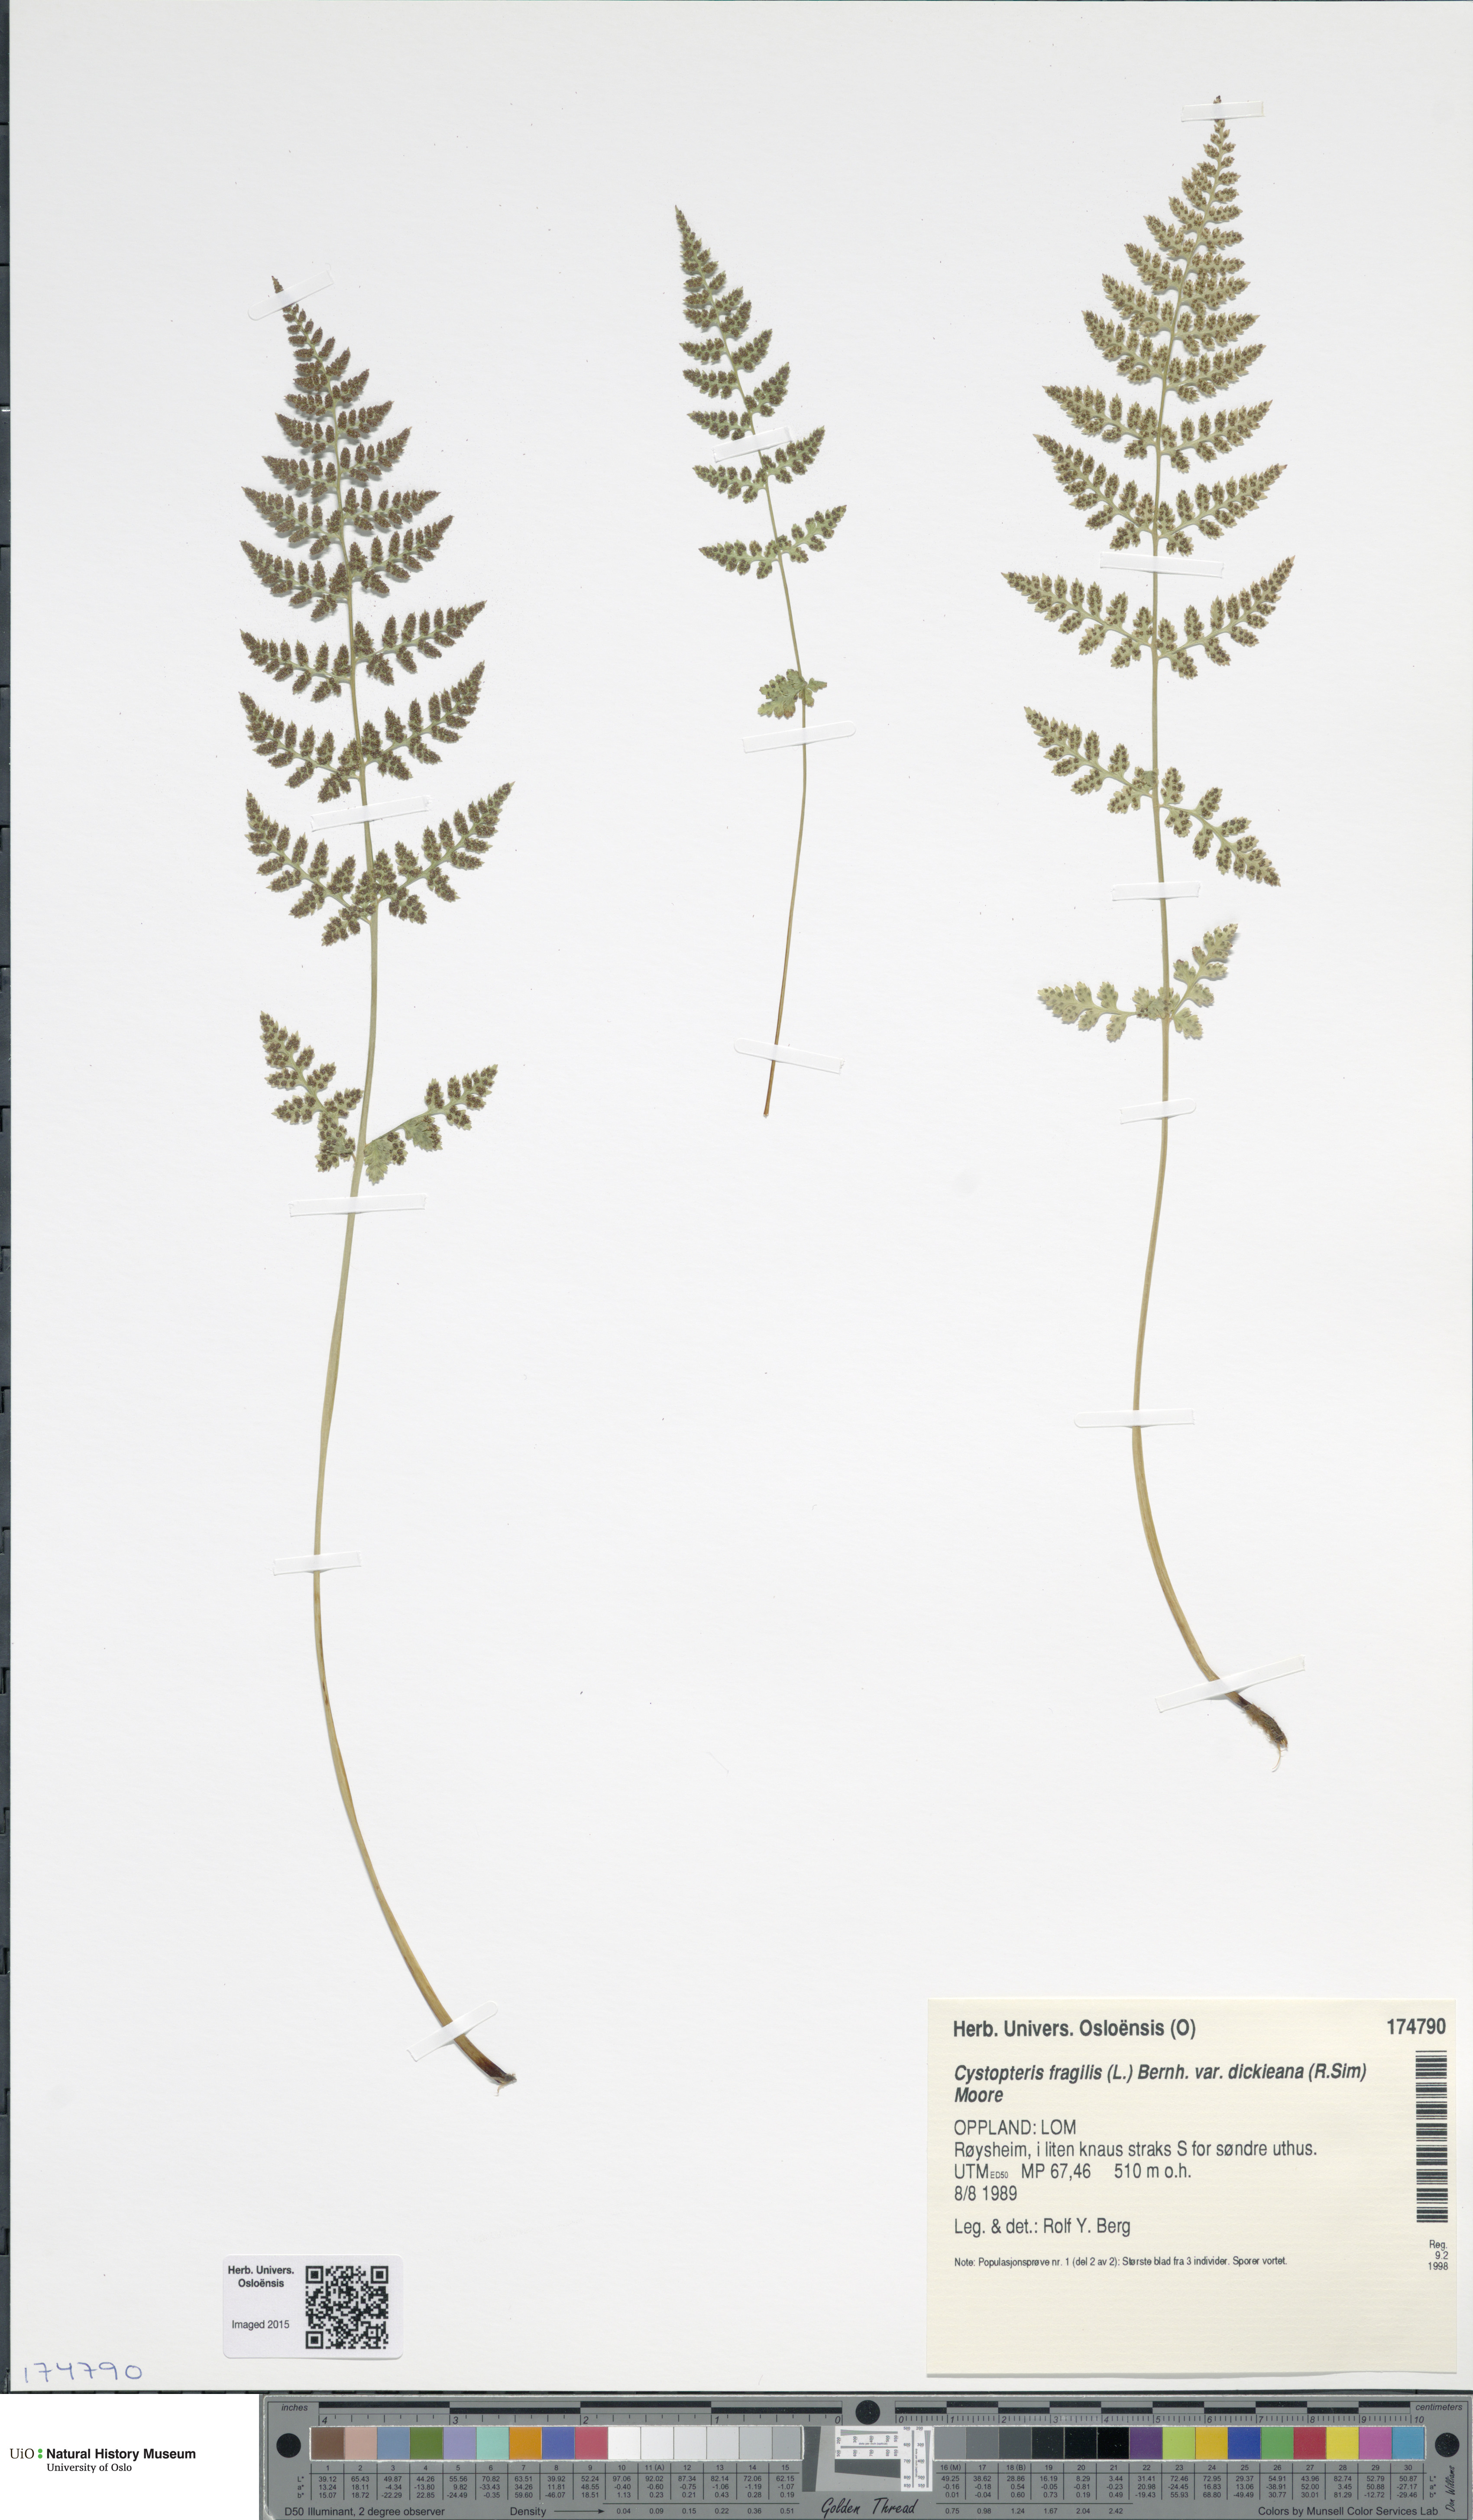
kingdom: Plantae
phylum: Tracheophyta
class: Polypodiopsida
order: Polypodiales
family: Cystopteridaceae
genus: Cystopteris
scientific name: Cystopteris dickieana
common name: Dickie's bladder-fern
